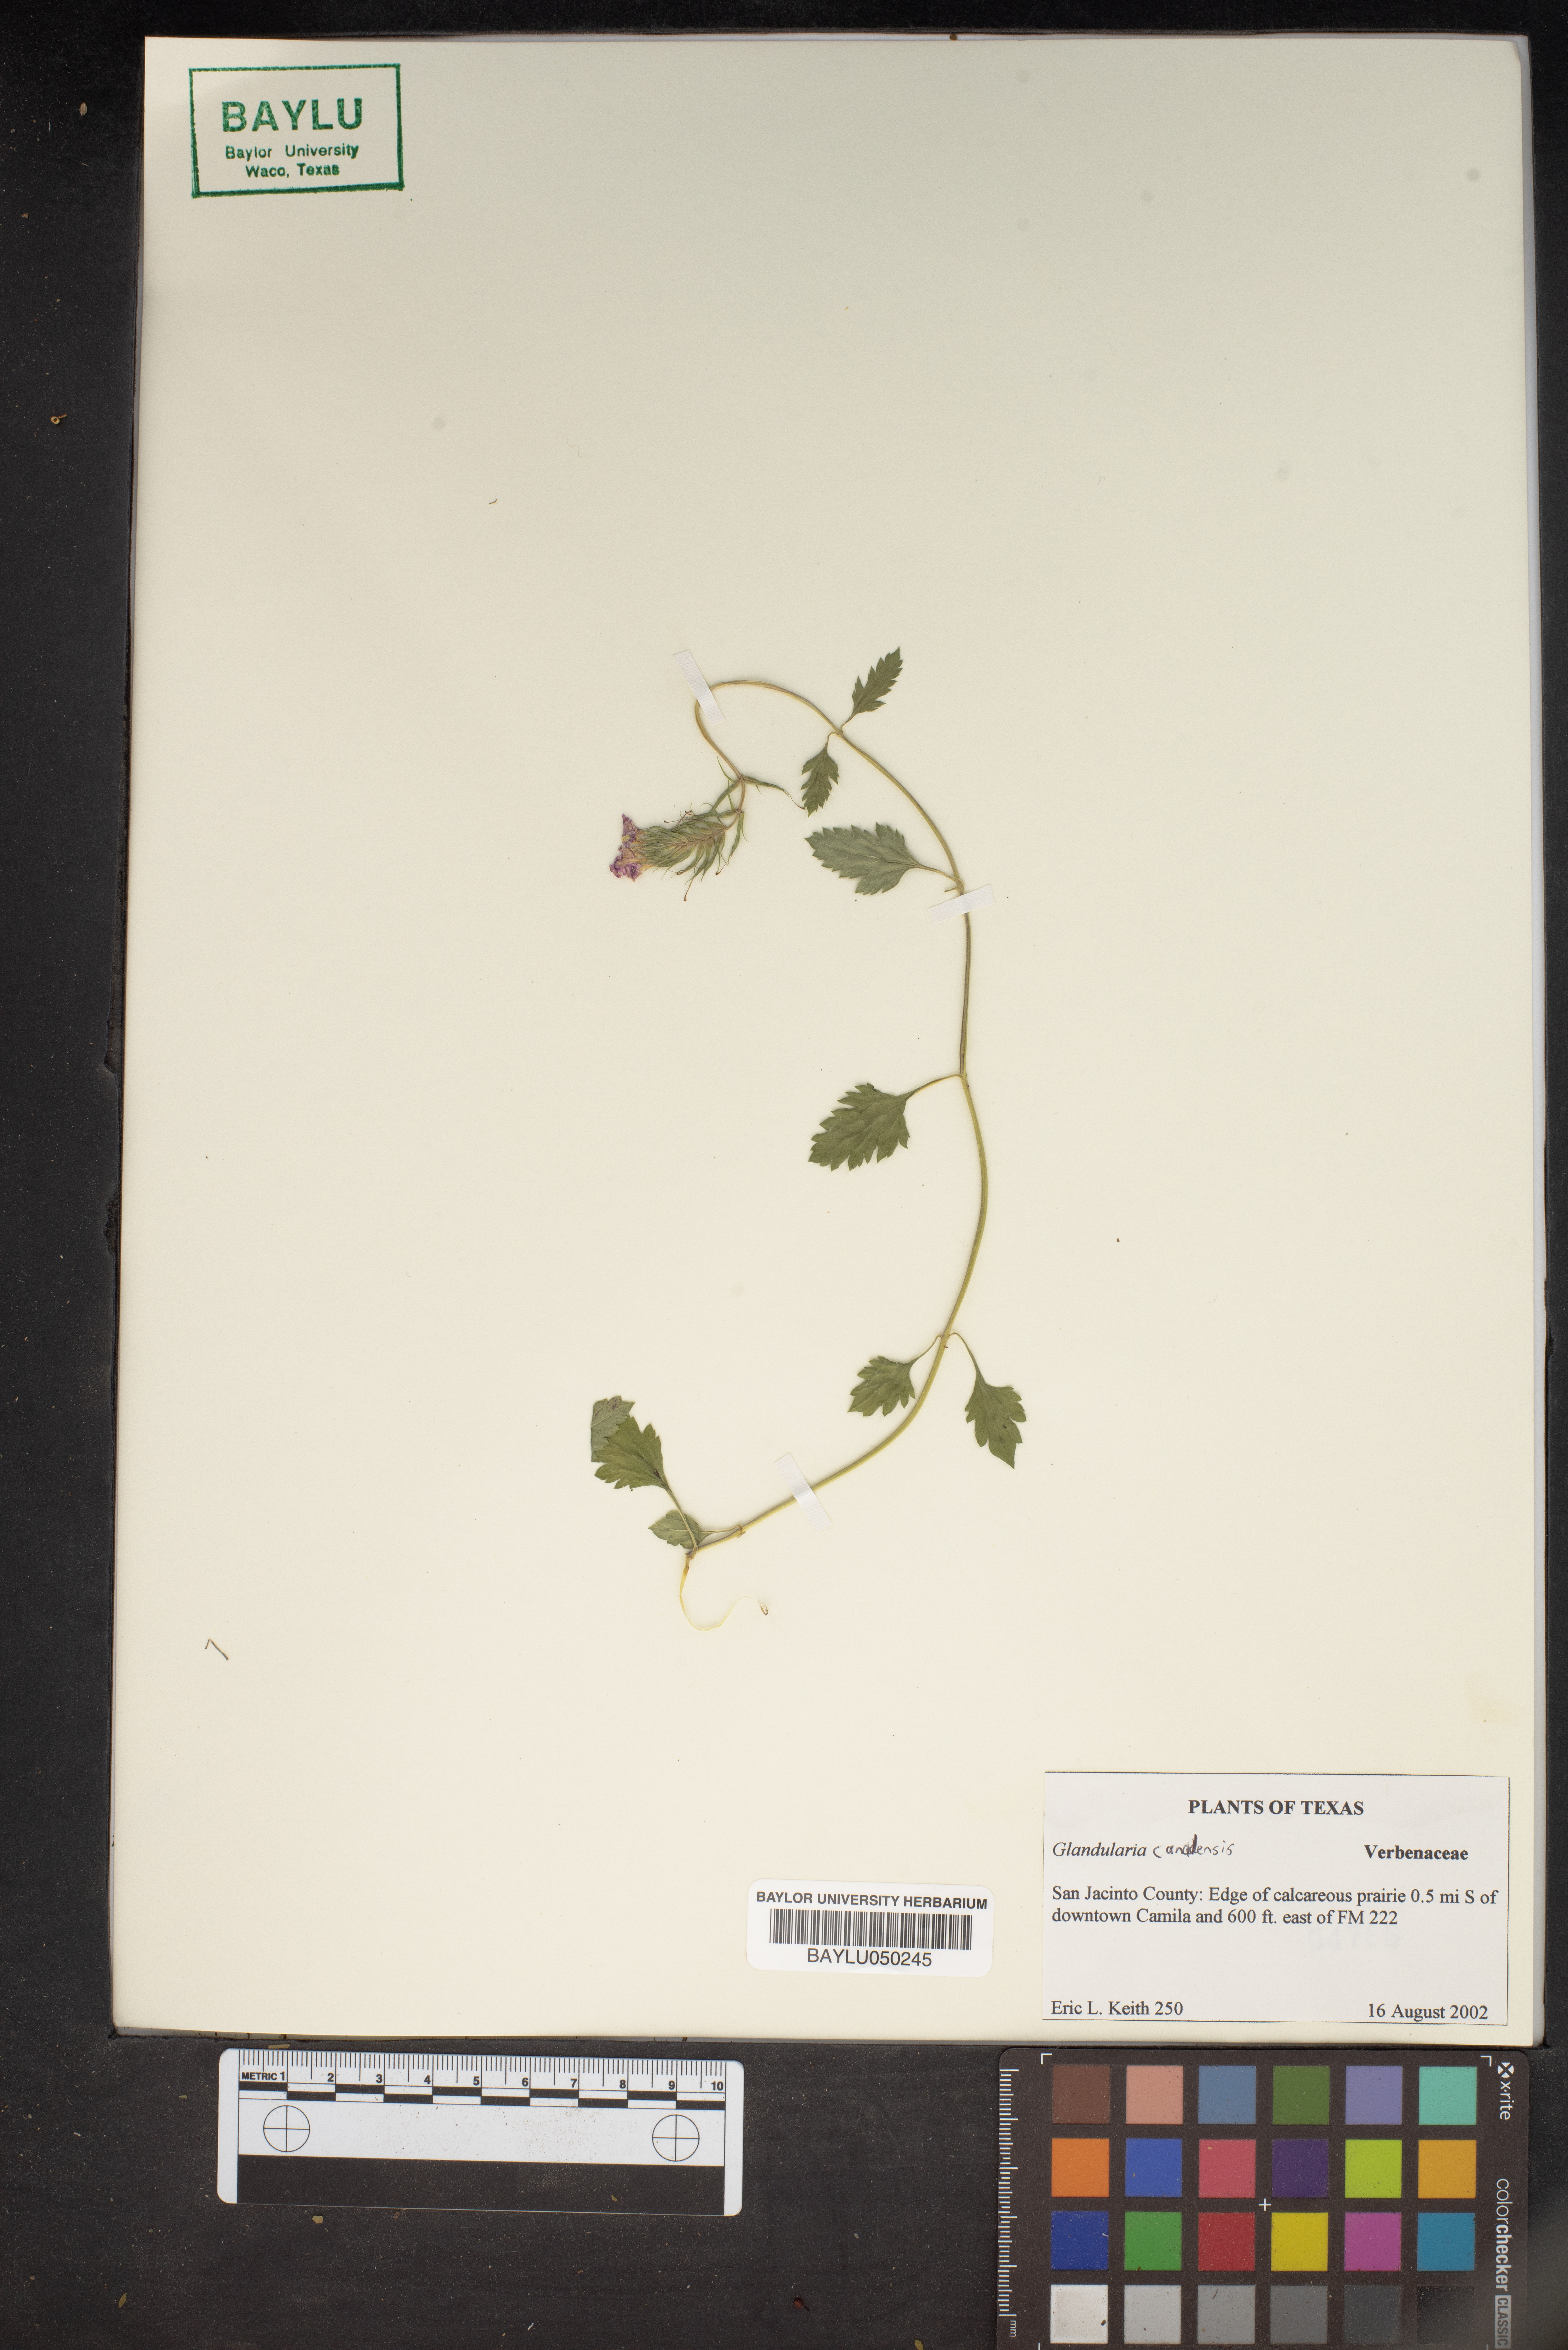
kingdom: Plantae
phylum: Tracheophyta
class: Magnoliopsida
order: Lamiales
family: Verbenaceae
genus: Verbena
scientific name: Verbena canadensis
